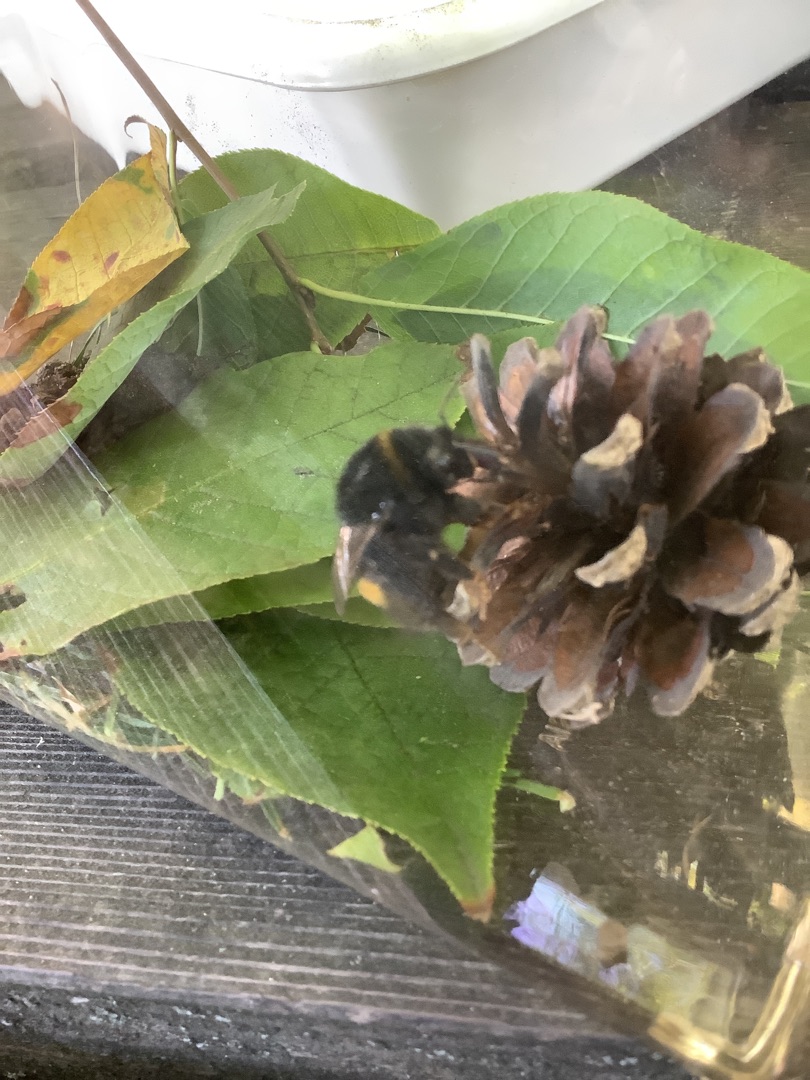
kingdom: Animalia
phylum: Arthropoda
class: Insecta
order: Hymenoptera
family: Apidae
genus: Bombus
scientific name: Bombus terrestris
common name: Mørk jordhumle
